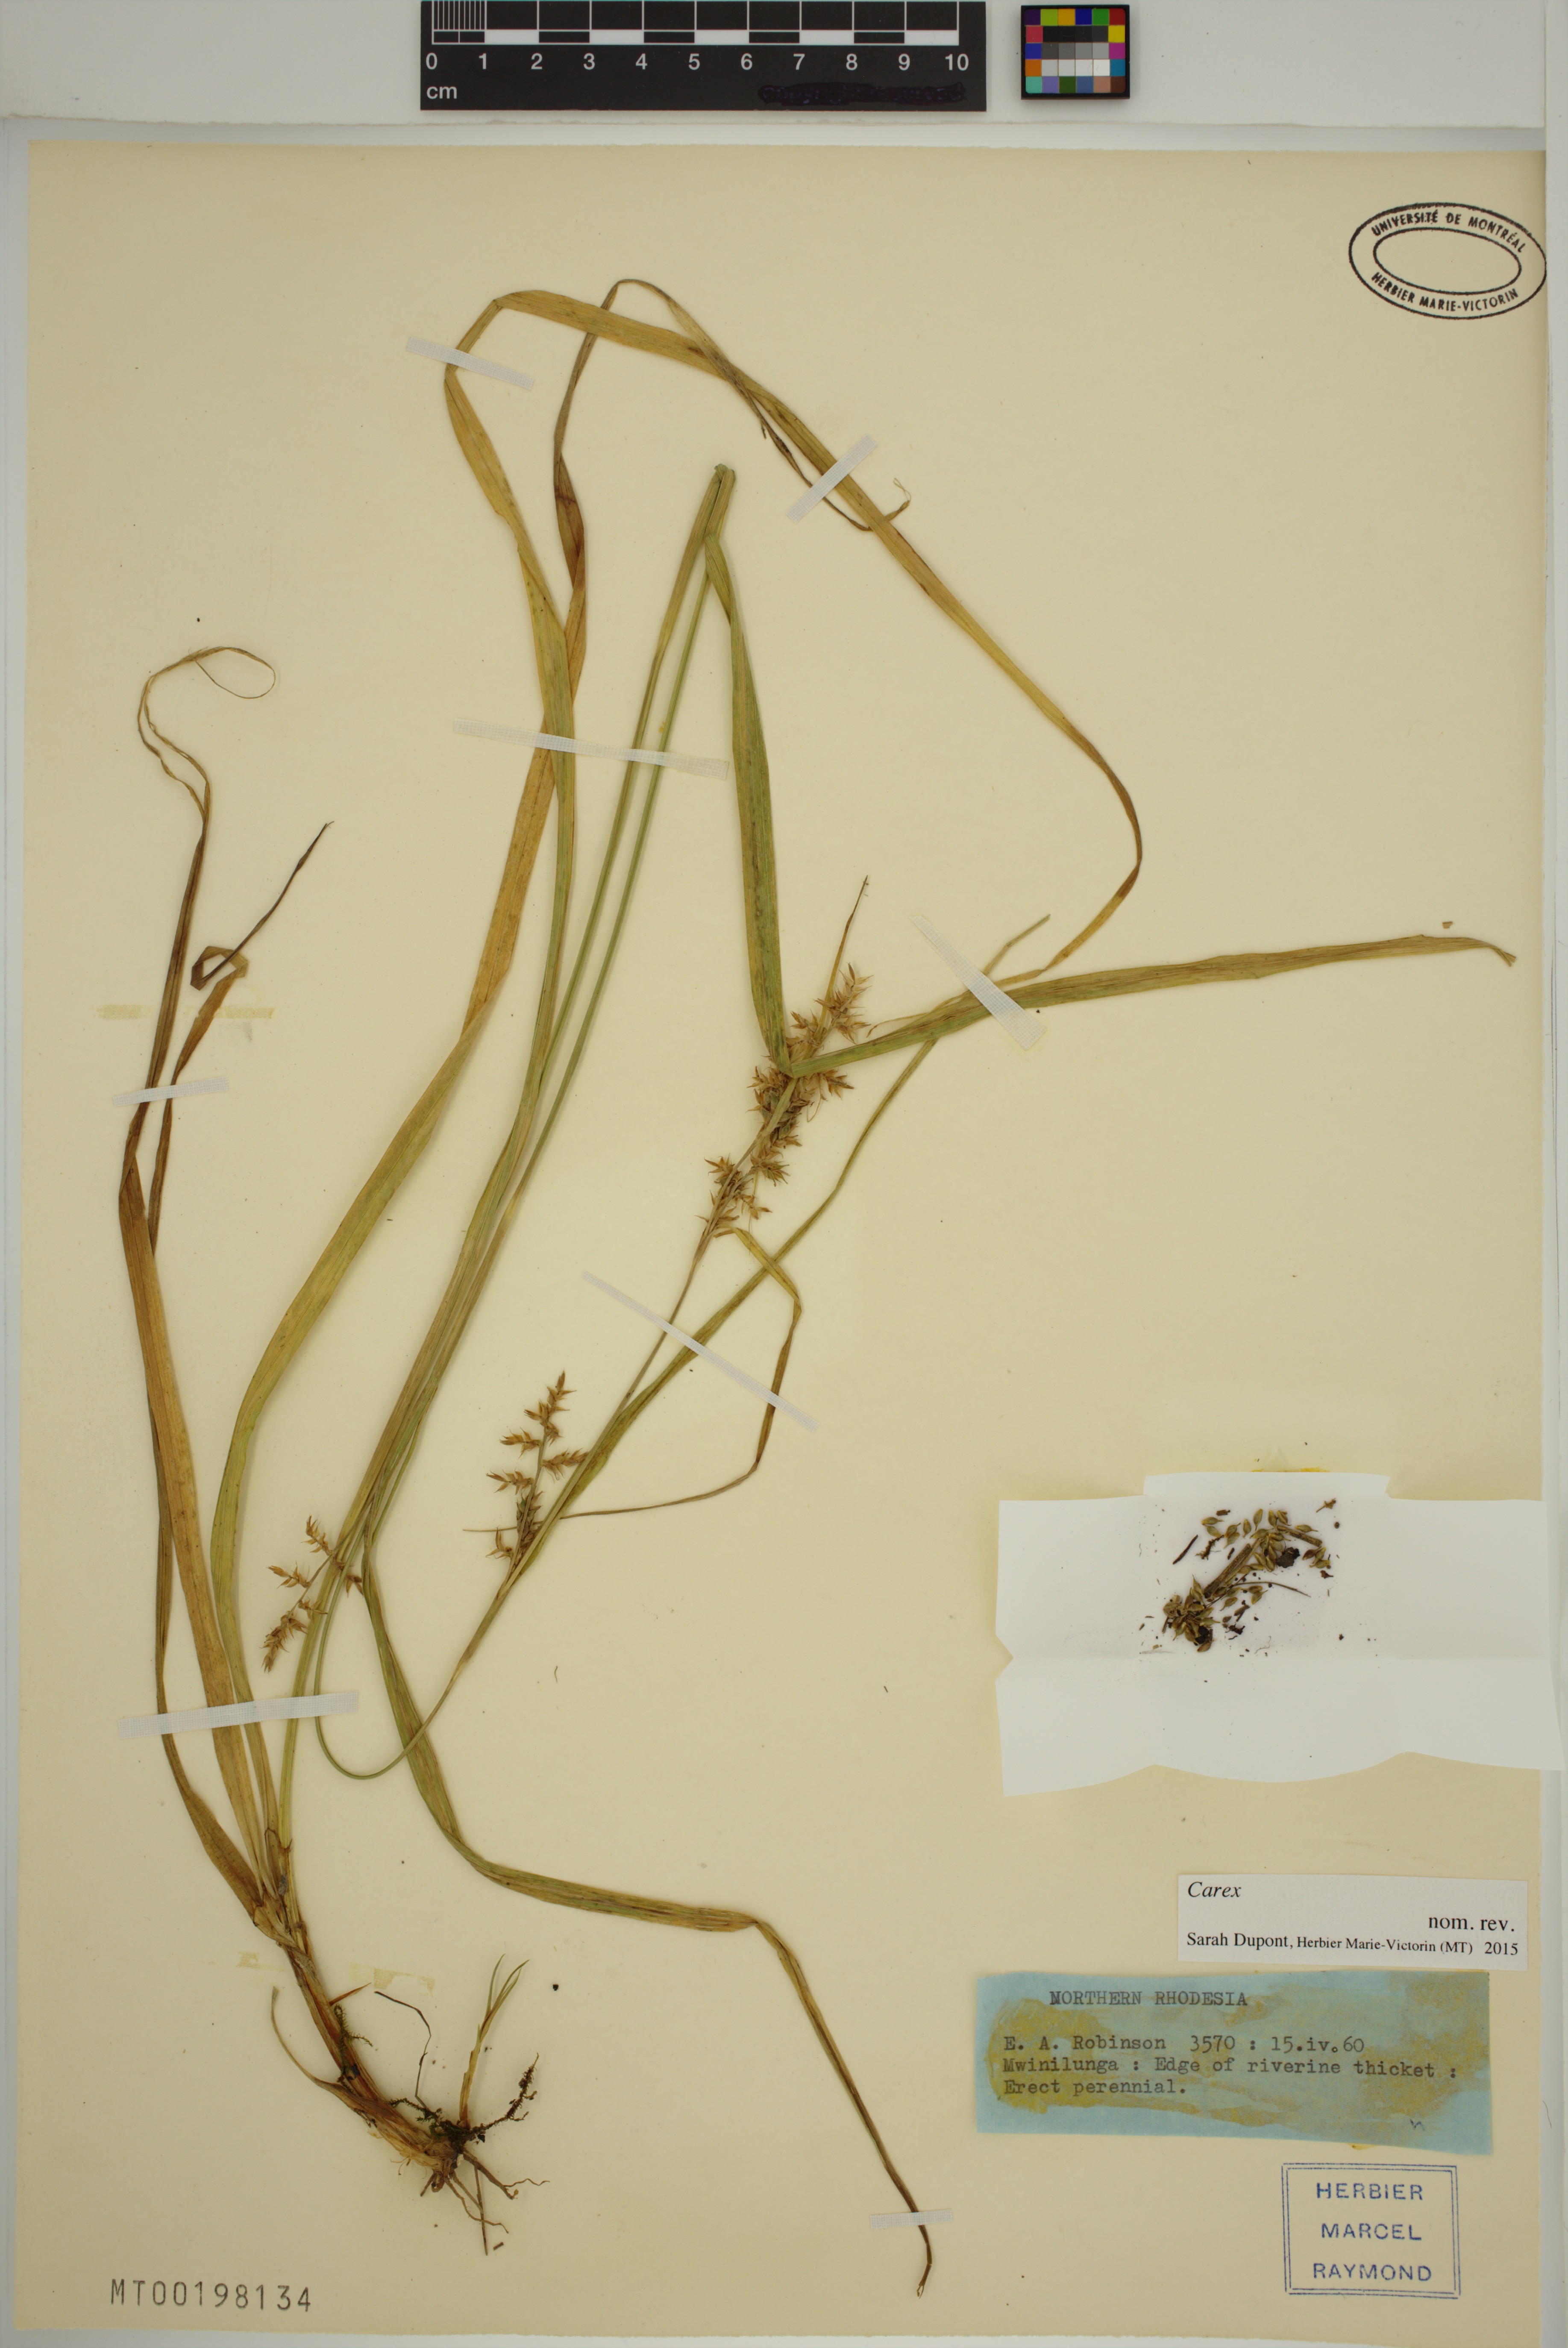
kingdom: Plantae
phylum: Tracheophyta
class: Liliopsida
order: Poales
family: Cyperaceae
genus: Carex
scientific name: Carex
